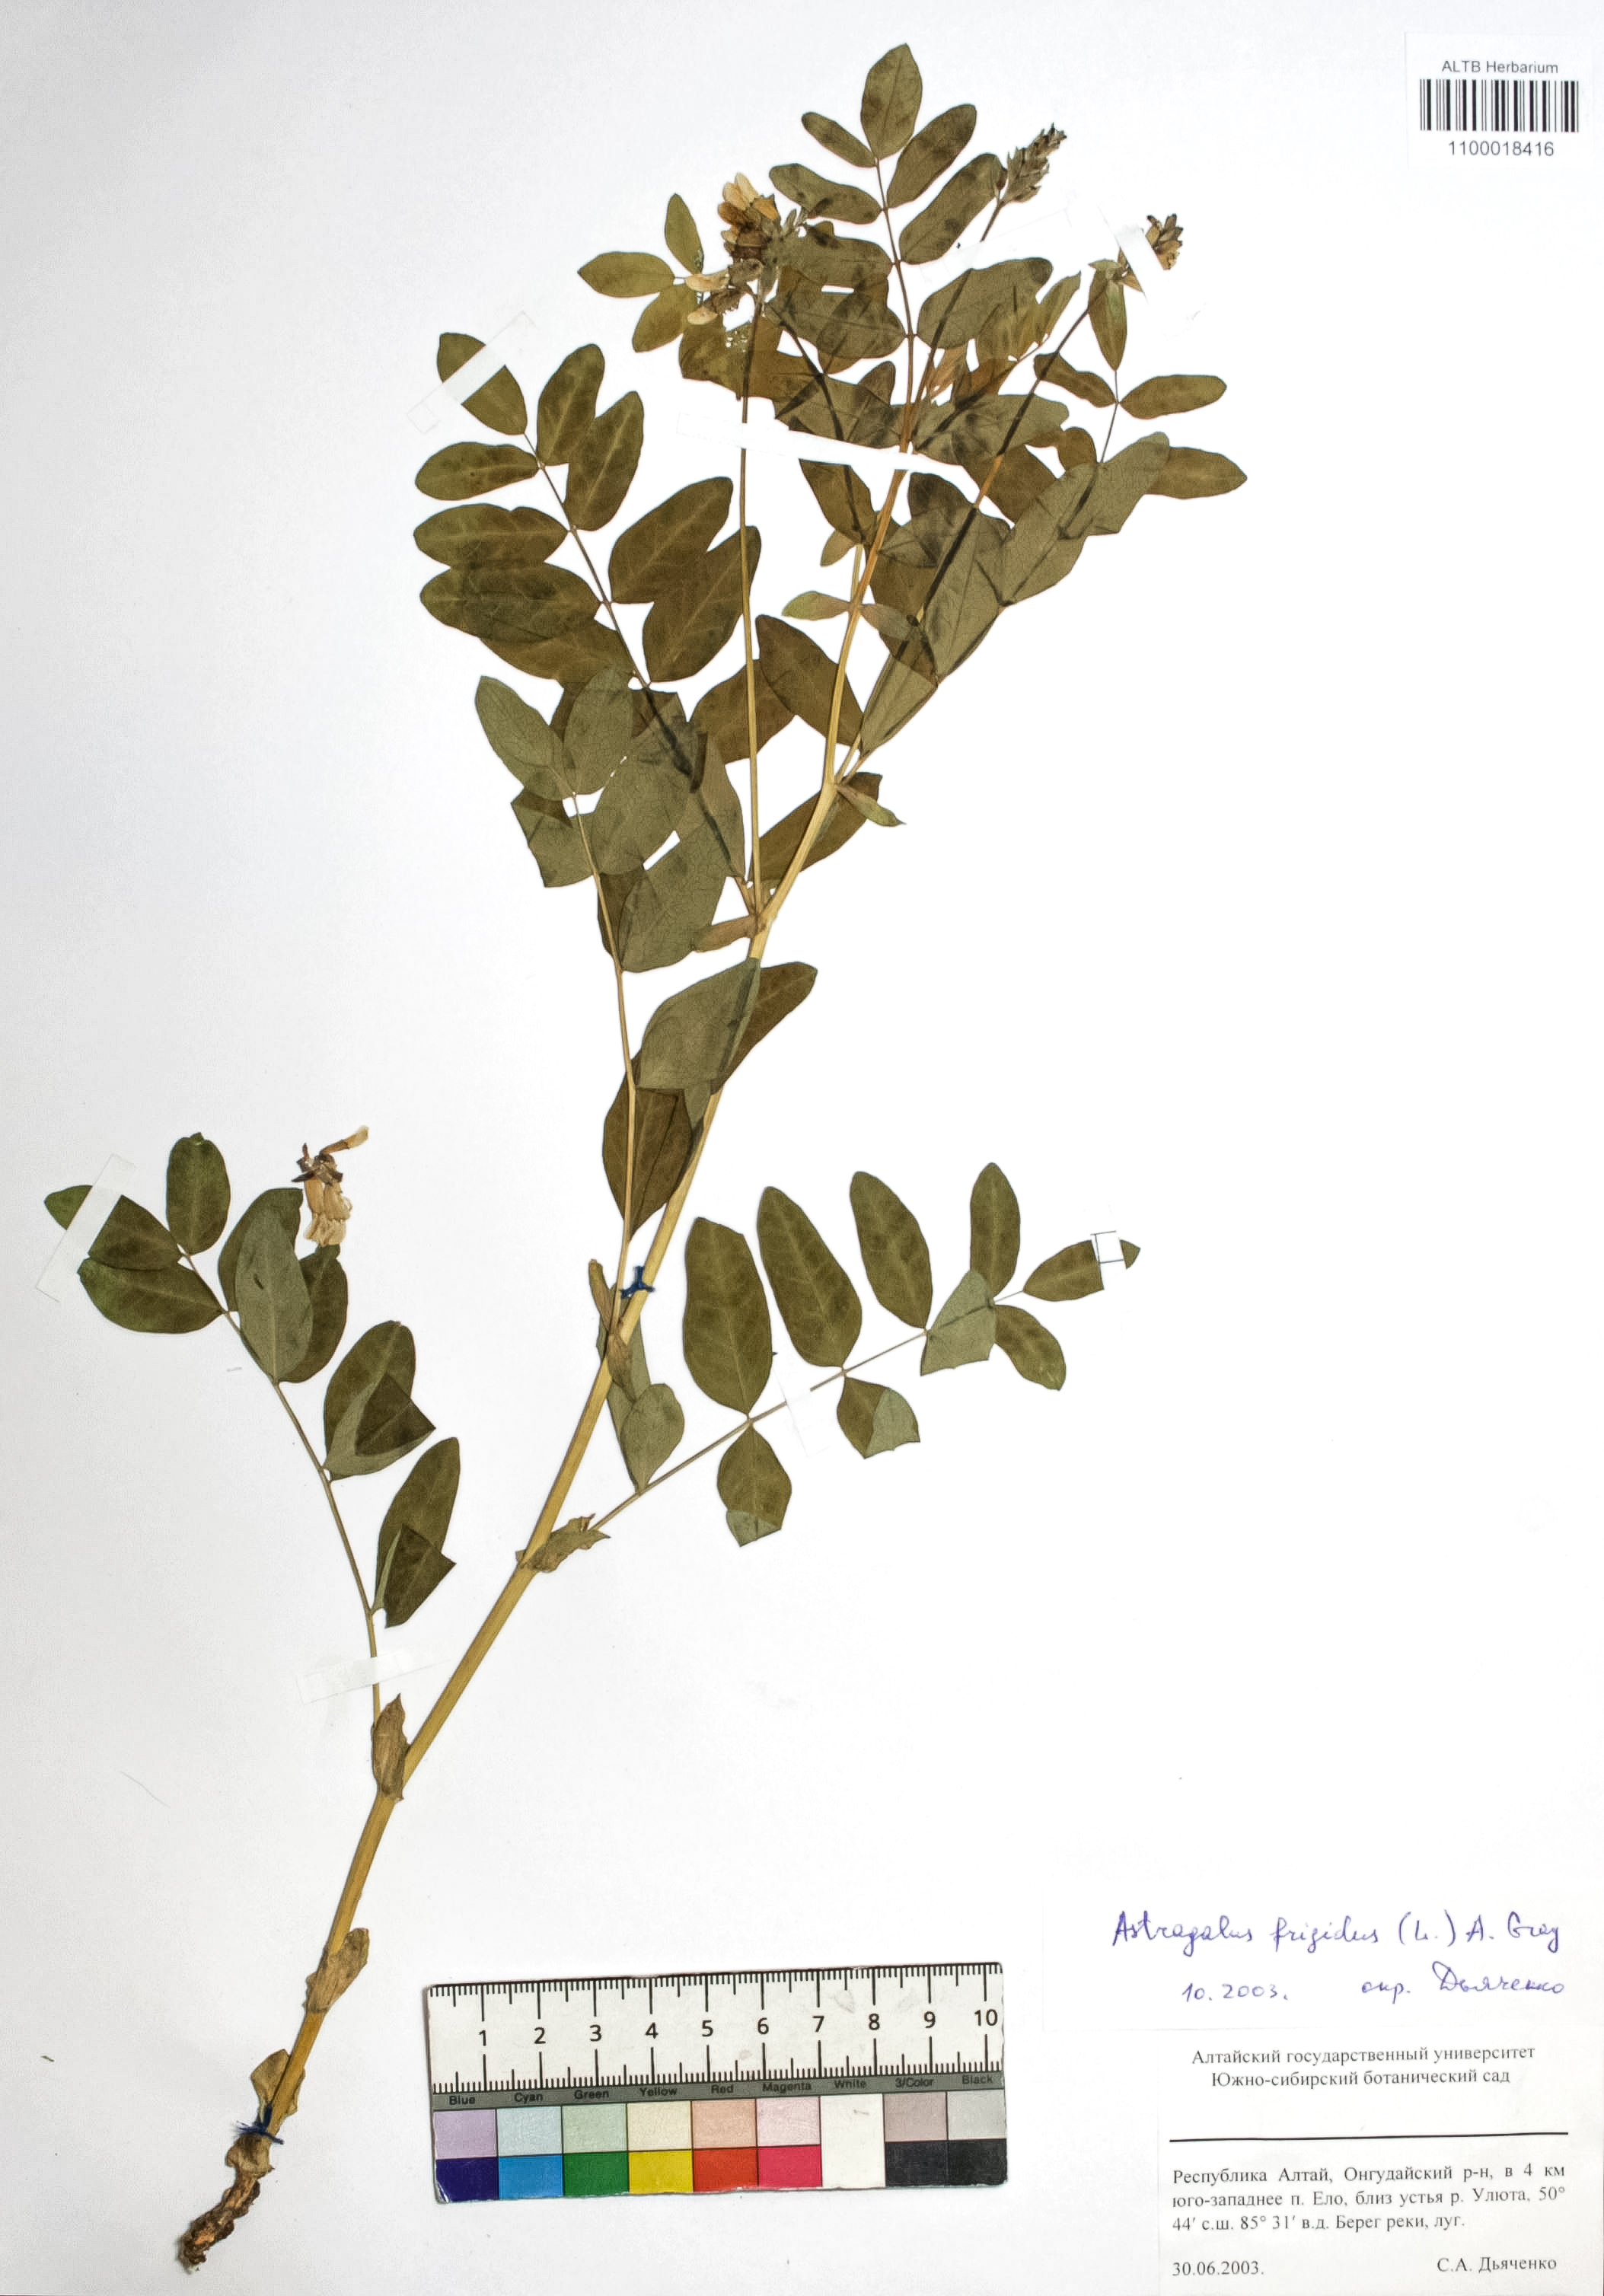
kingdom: Plantae
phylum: Tracheophyta
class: Magnoliopsida
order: Fabales
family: Fabaceae
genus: Astragalus
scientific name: Astragalus frigidus
